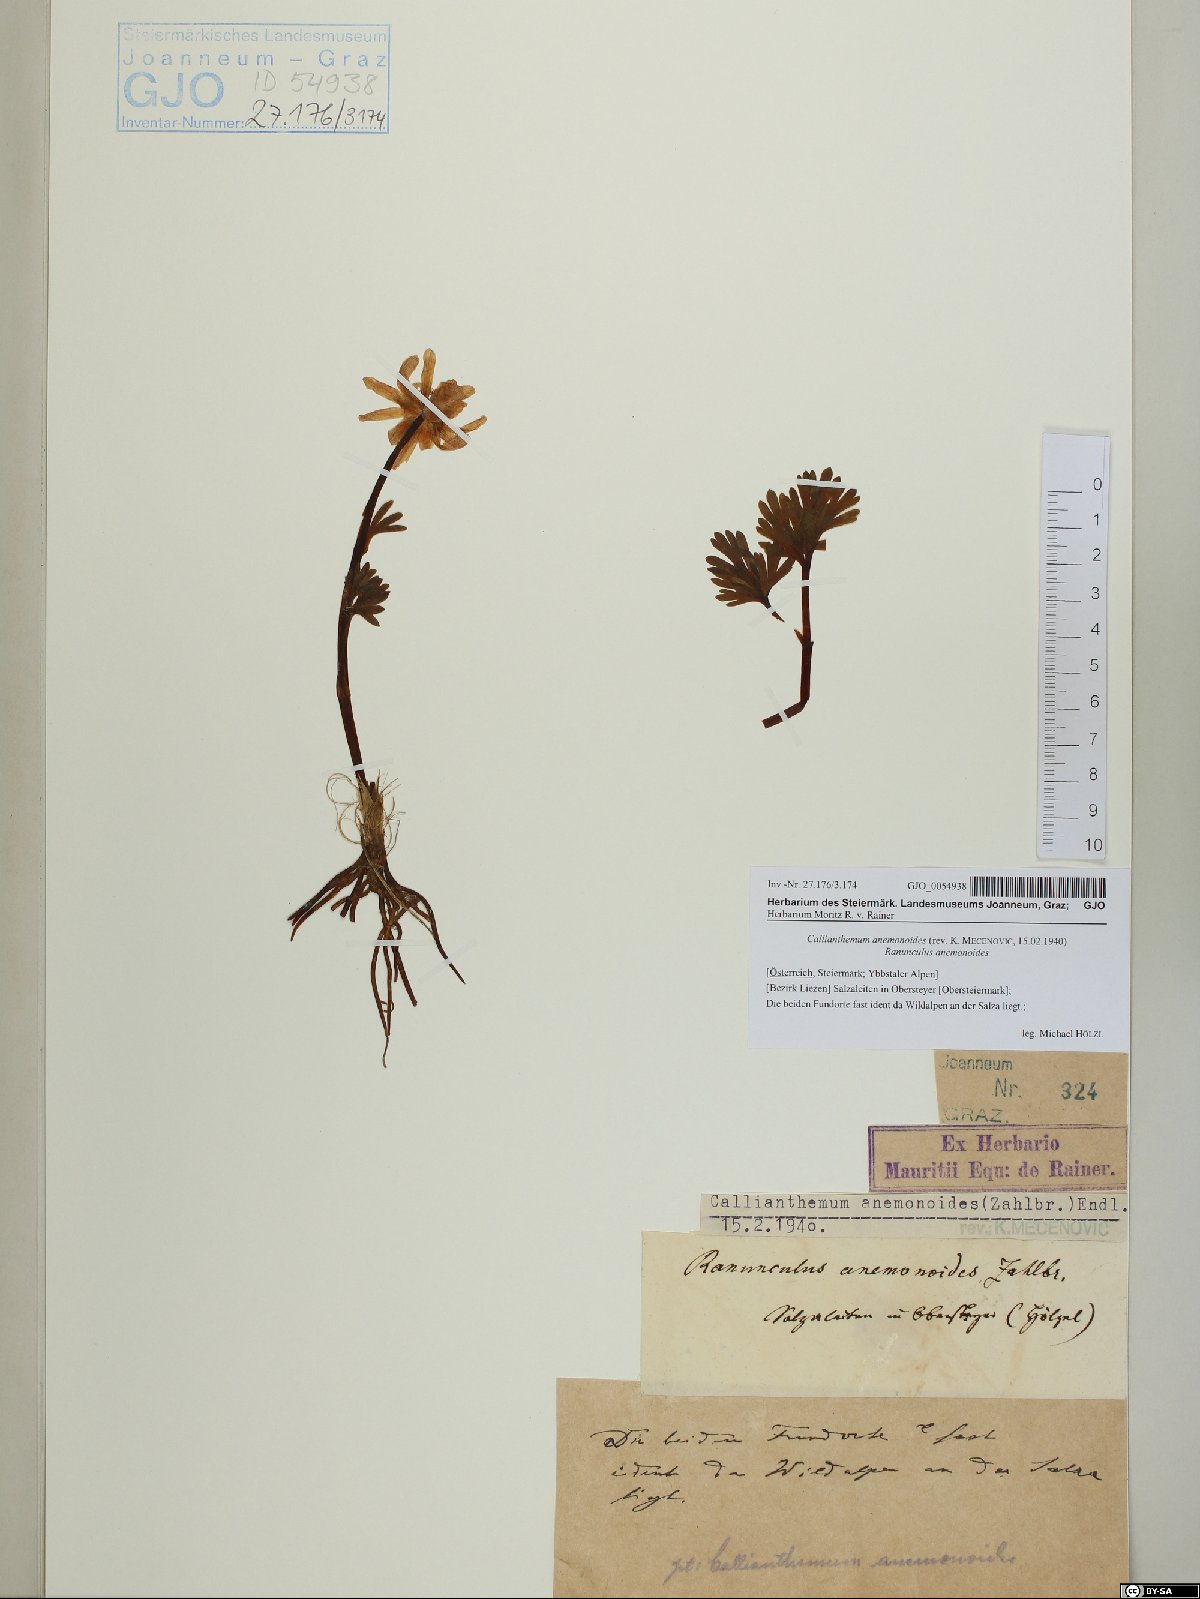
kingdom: Plantae
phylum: Tracheophyta
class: Magnoliopsida
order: Ranunculales
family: Ranunculaceae
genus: Callianthemum
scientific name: Callianthemum anemonoides
